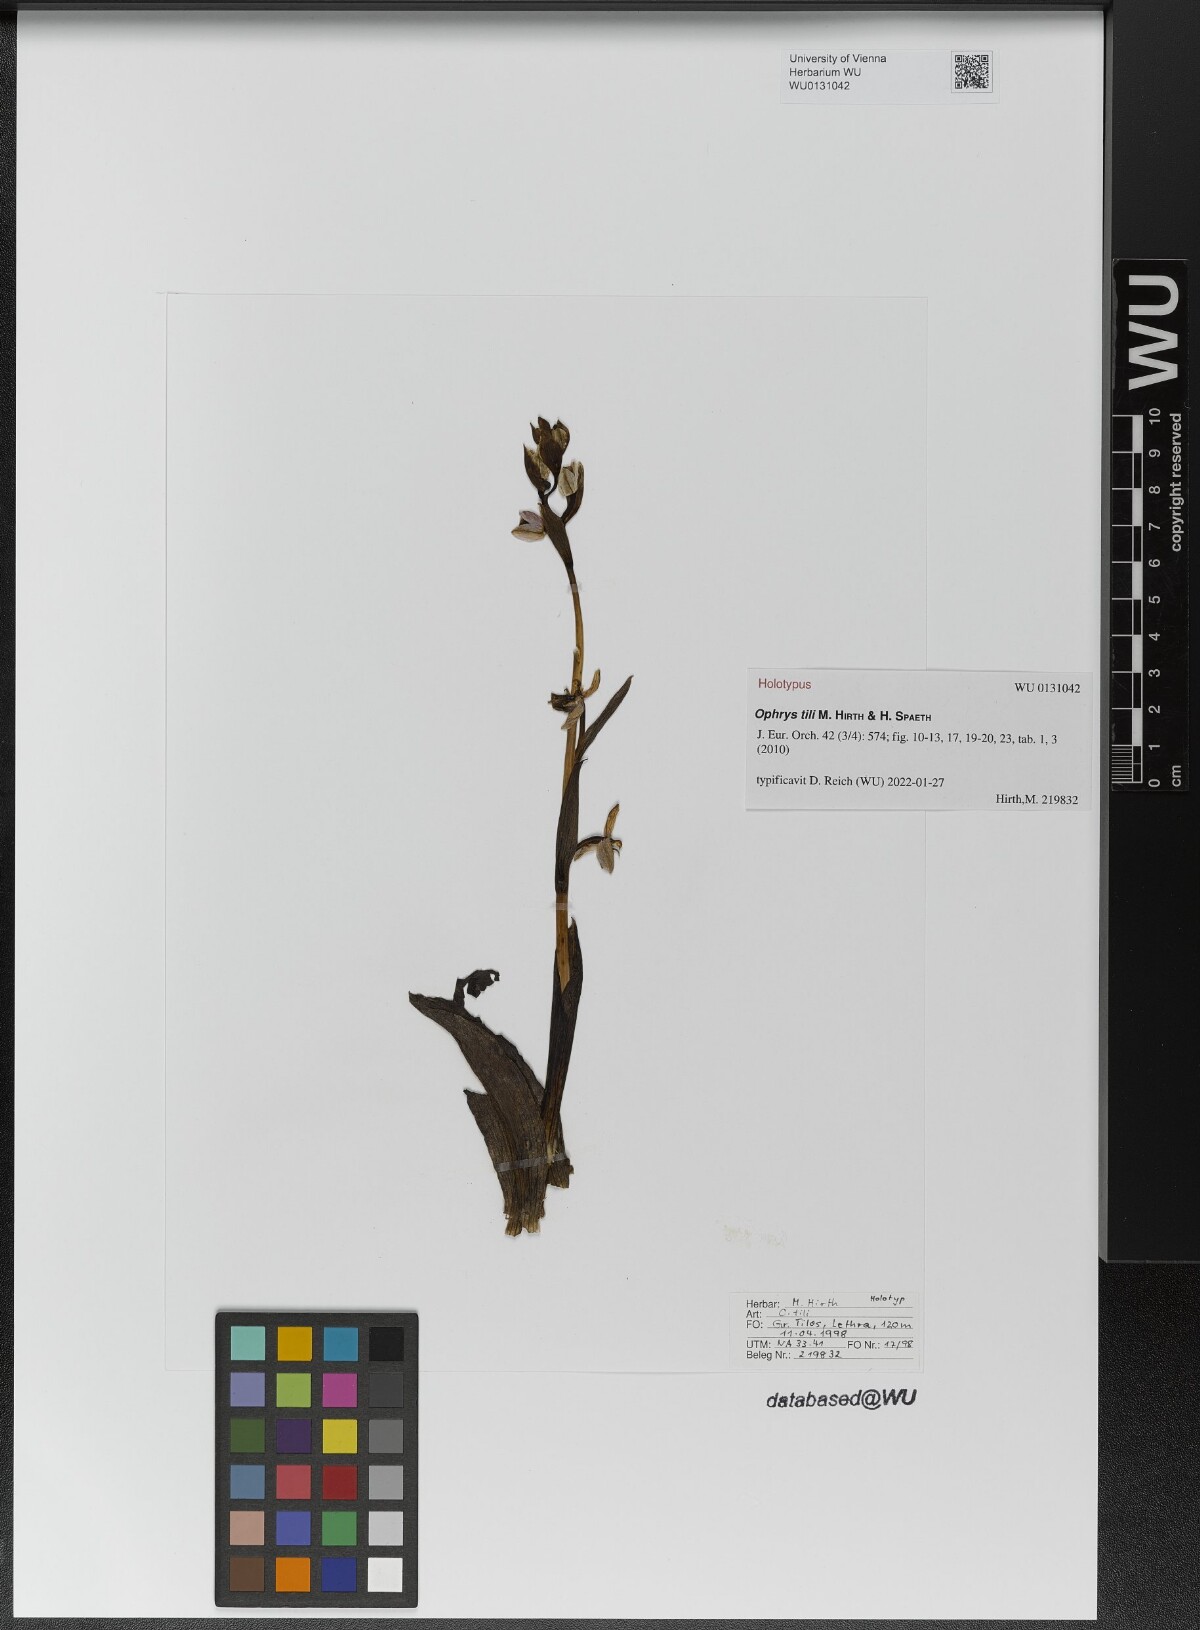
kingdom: Plantae
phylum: Tracheophyta
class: Liliopsida
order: Asparagales
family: Orchidaceae
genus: Ophrys
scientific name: Ophrys vicina
